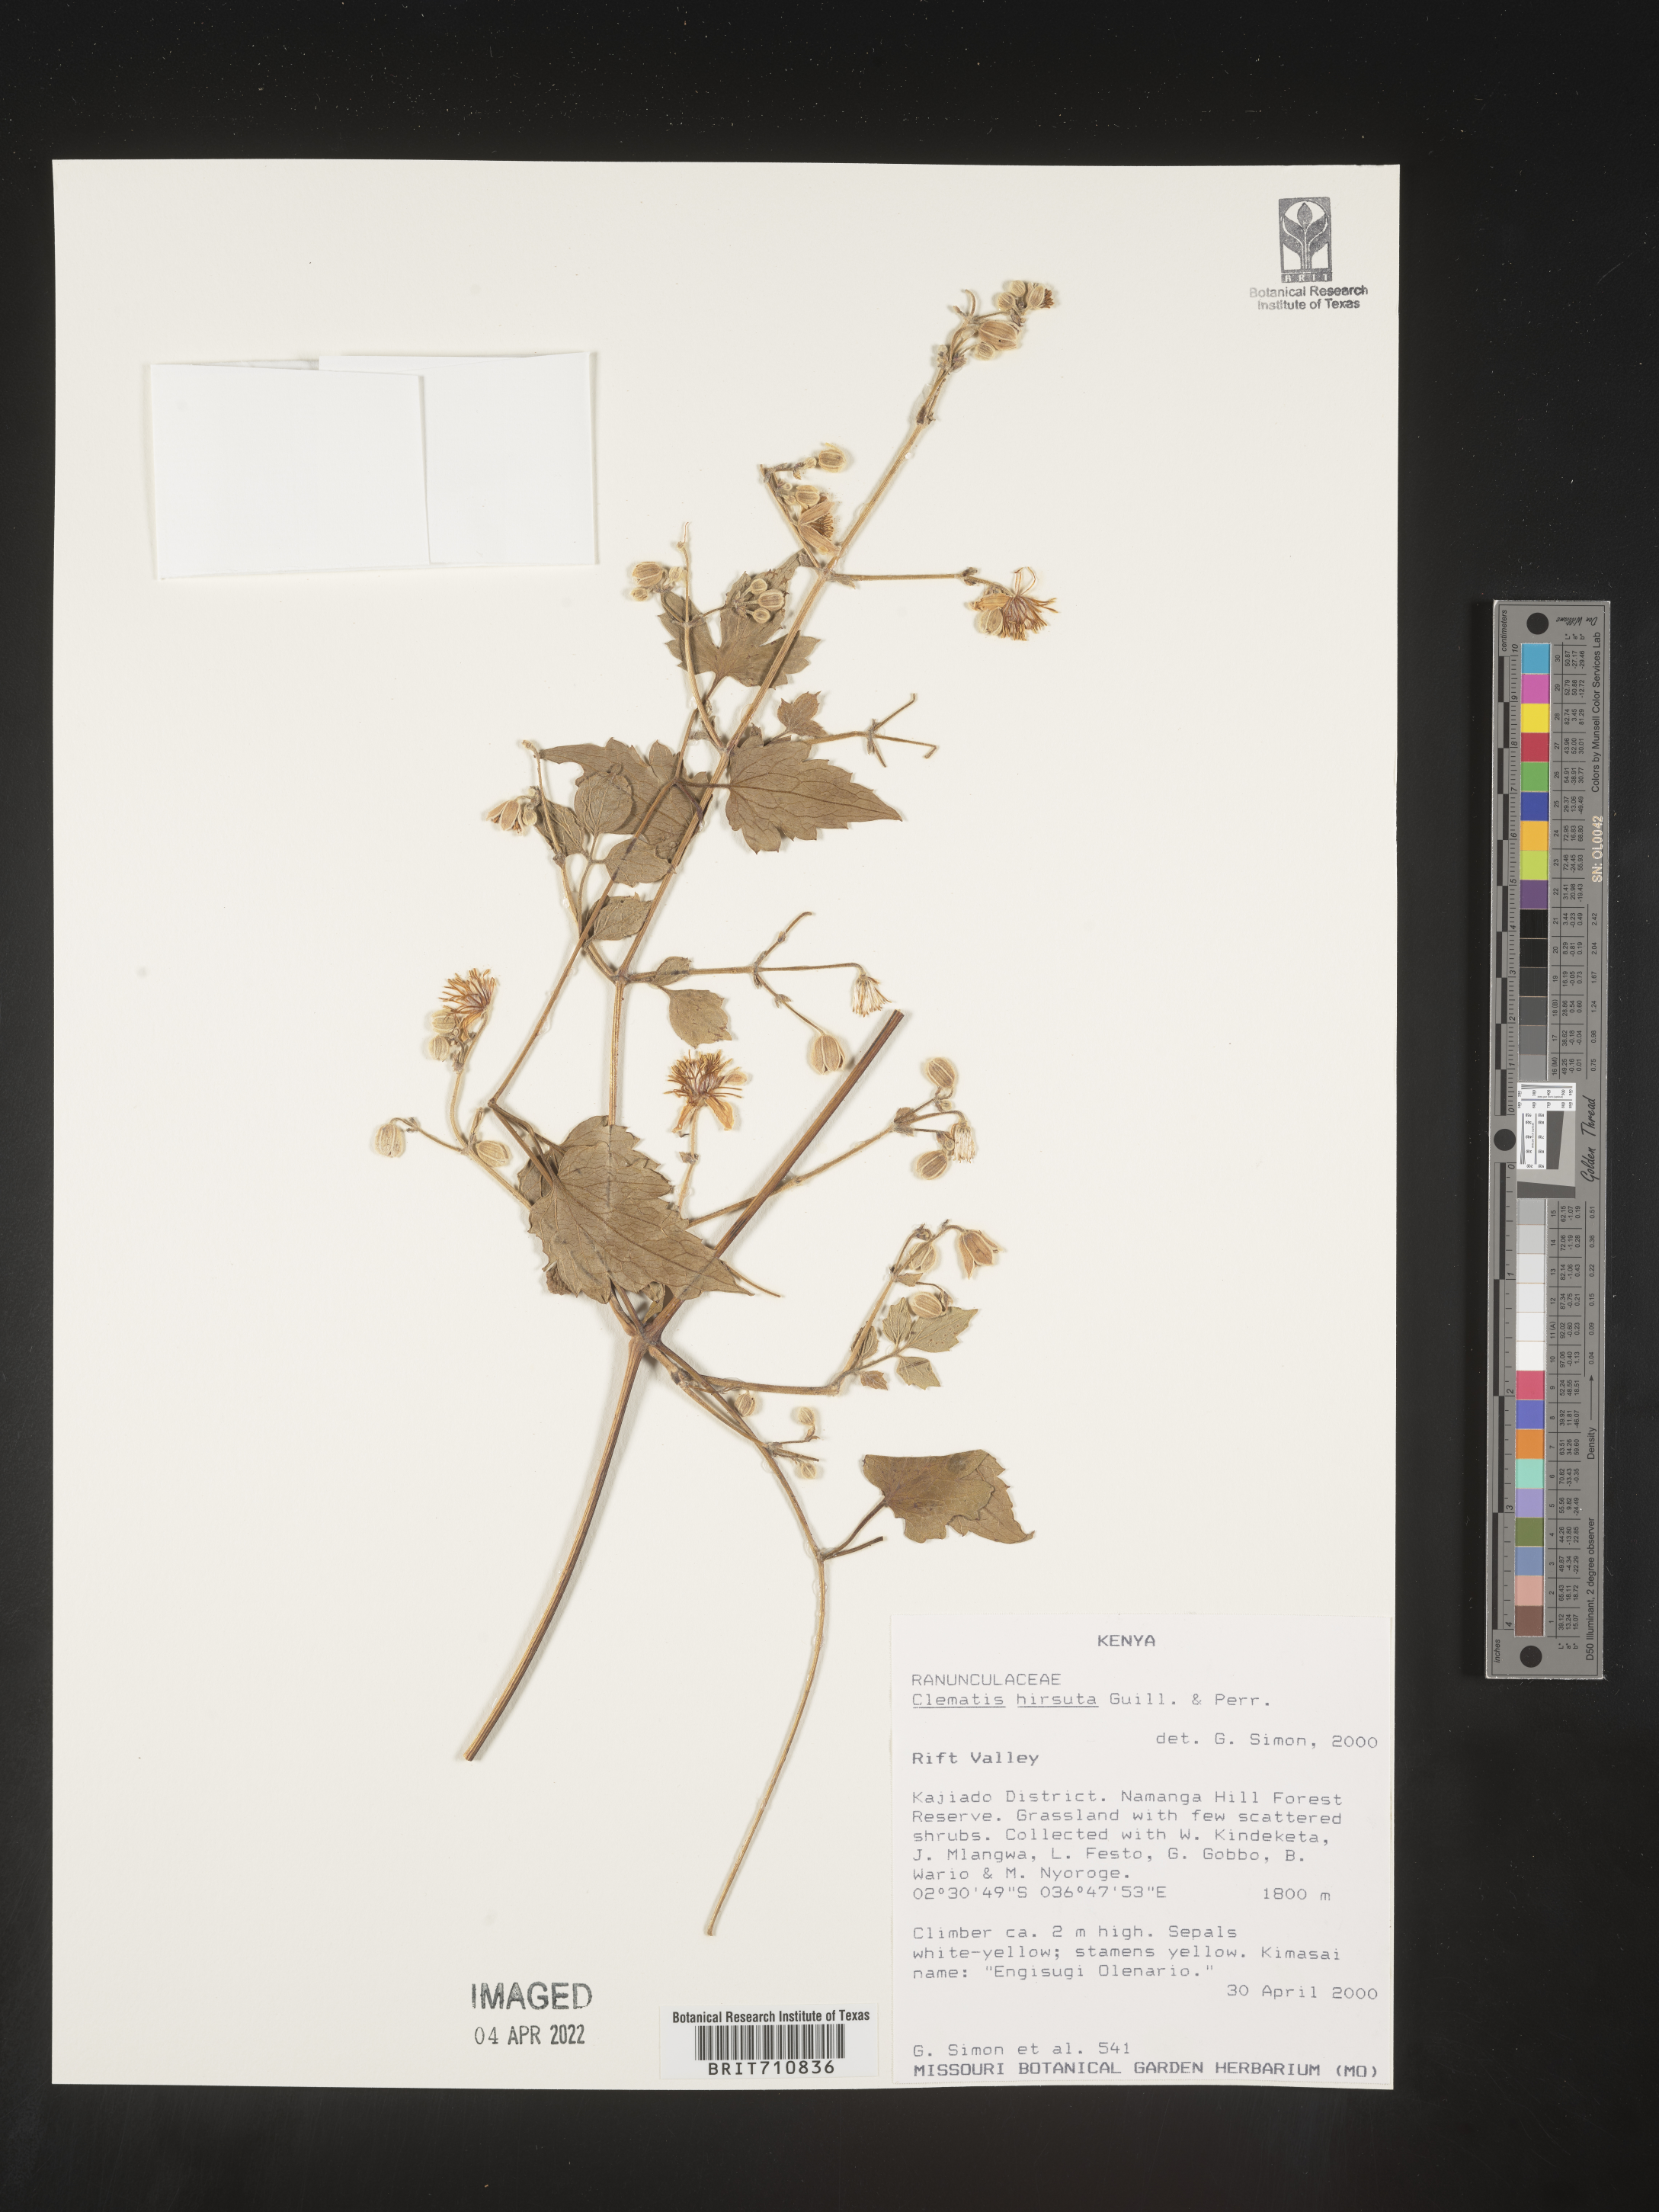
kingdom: Plantae
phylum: Tracheophyta
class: Magnoliopsida
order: Ranunculales
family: Ranunculaceae
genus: Clematis
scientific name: Clematis
